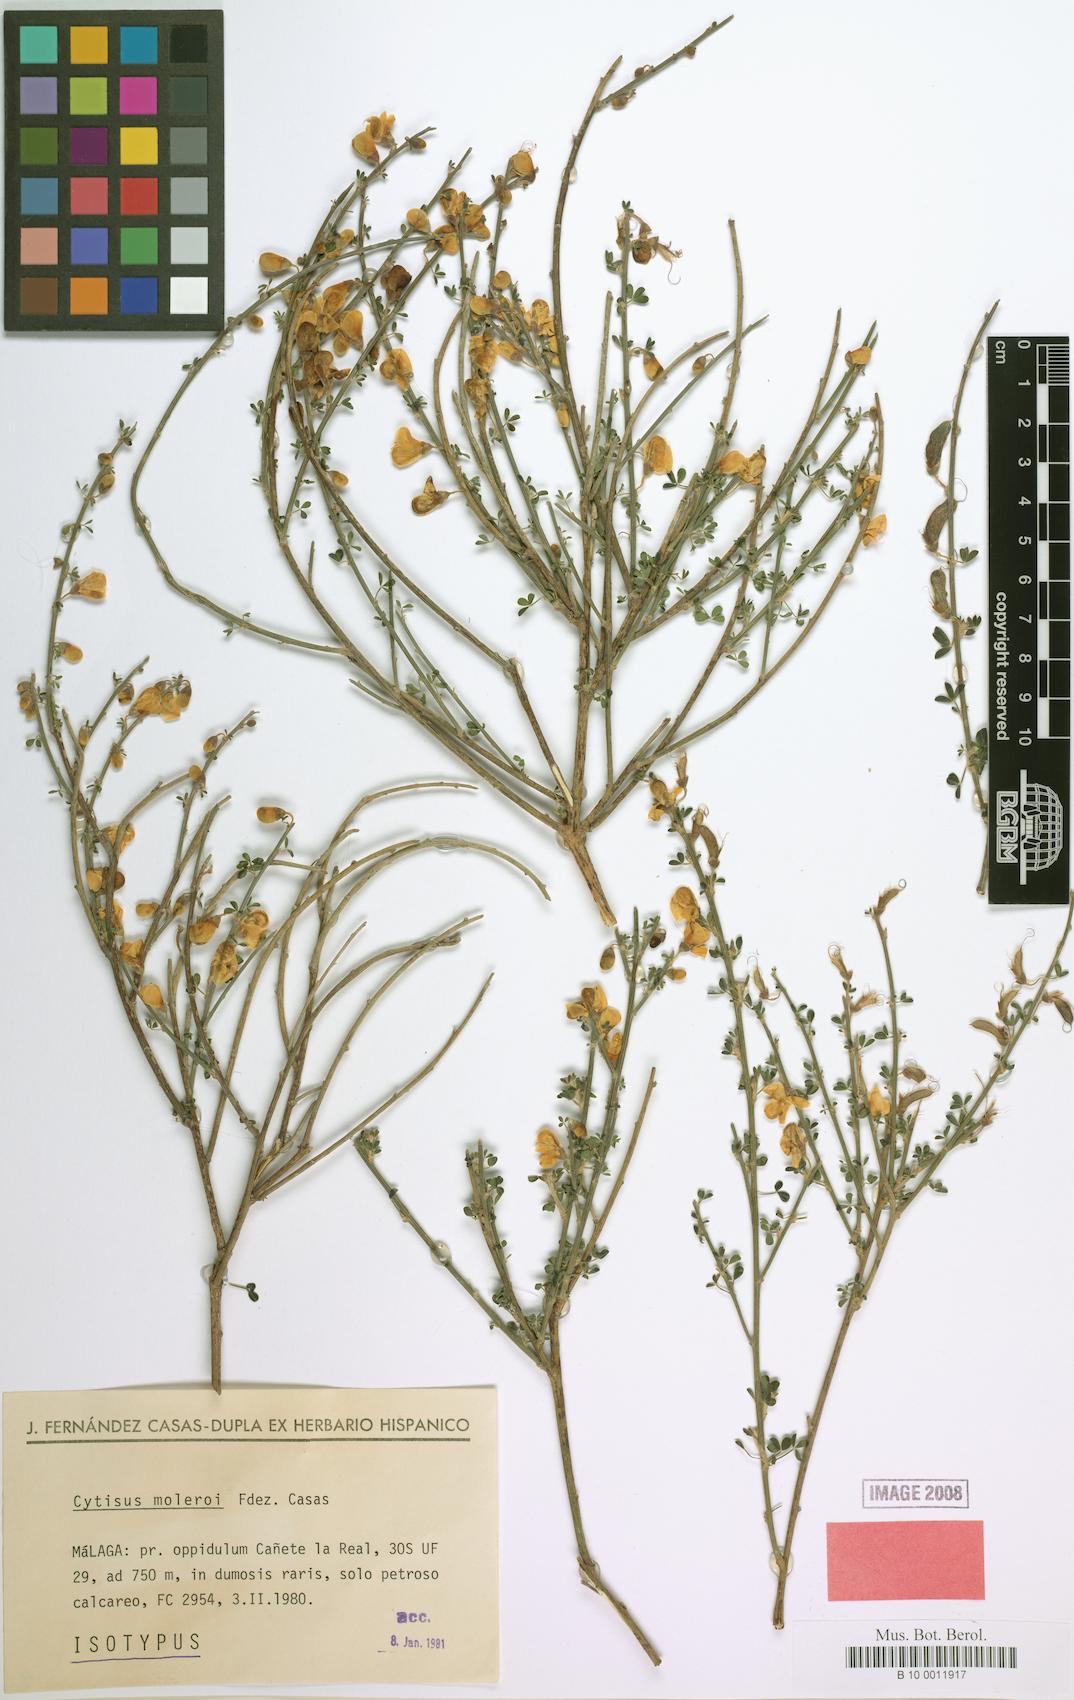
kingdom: Plantae
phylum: Tracheophyta
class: Magnoliopsida
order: Fabales
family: Fabaceae
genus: Cytisus
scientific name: Cytisus malacitanus
